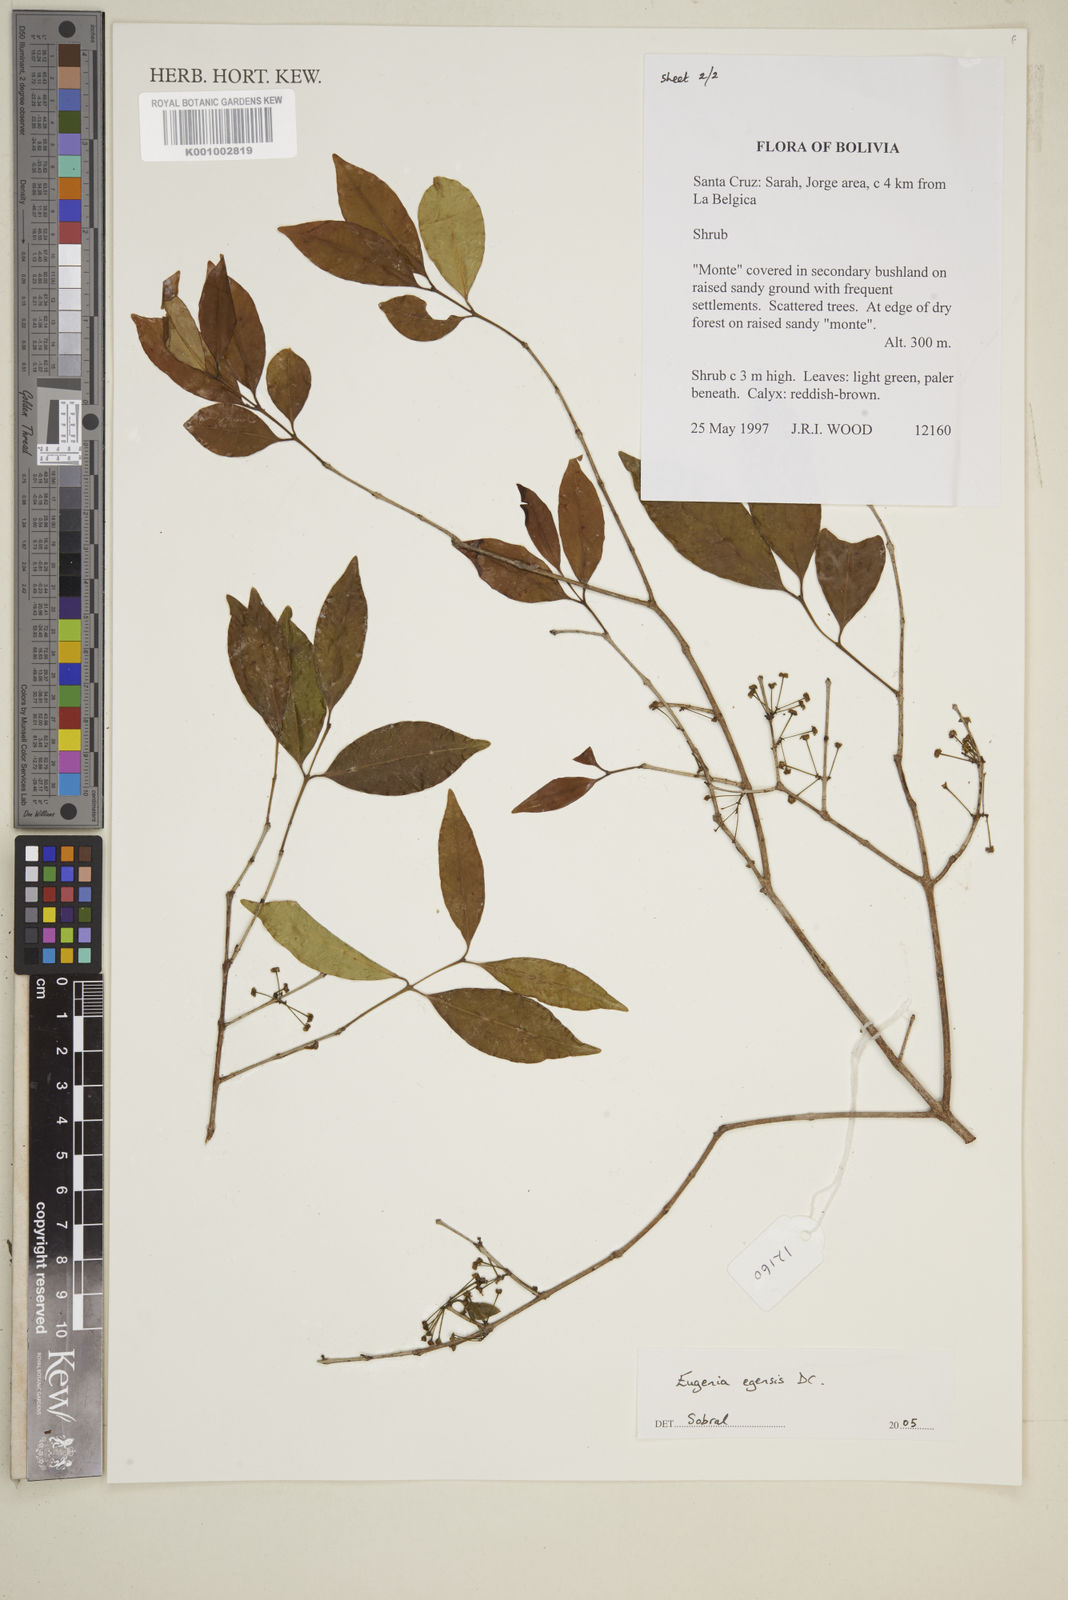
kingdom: Plantae
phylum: Tracheophyta
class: Magnoliopsida
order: Myrtales
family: Myrtaceae
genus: Eugenia
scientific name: Eugenia egensis
